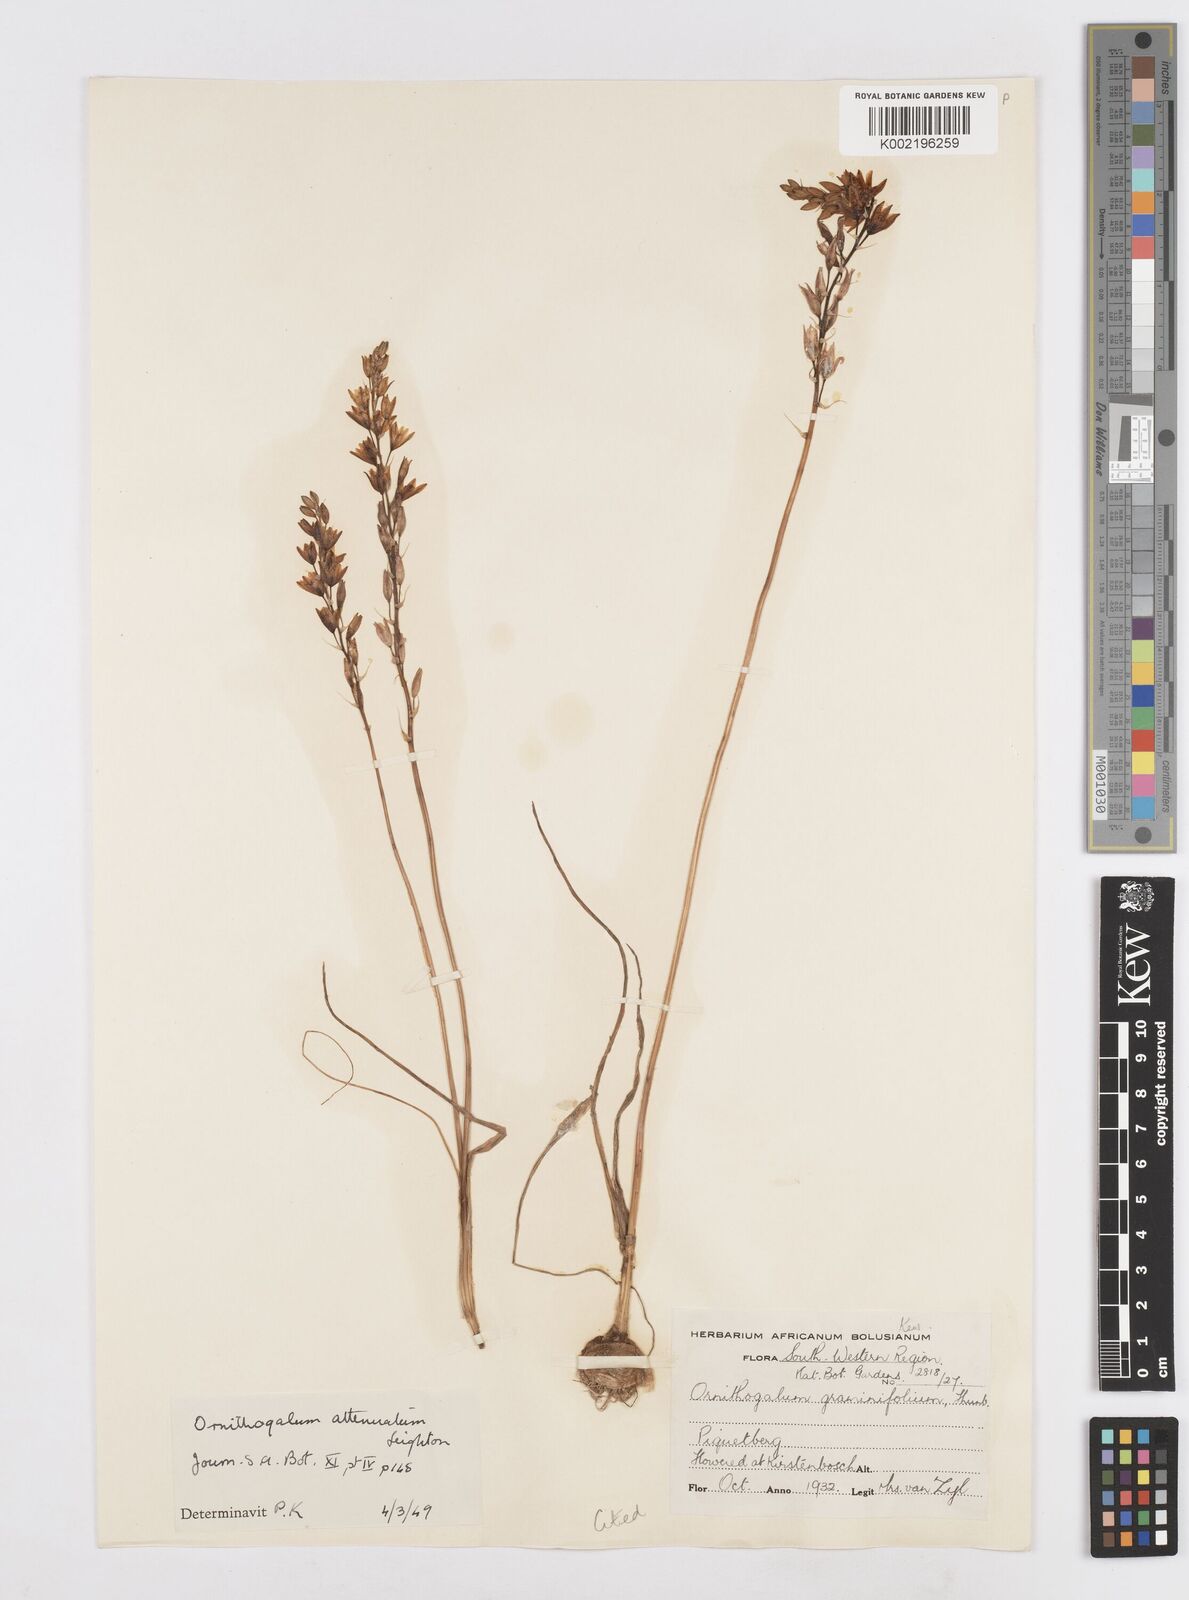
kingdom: Plantae
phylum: Tracheophyta
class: Liliopsida
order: Asparagales
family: Asparagaceae
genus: Ornithogalum
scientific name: Ornithogalum graminifolium
